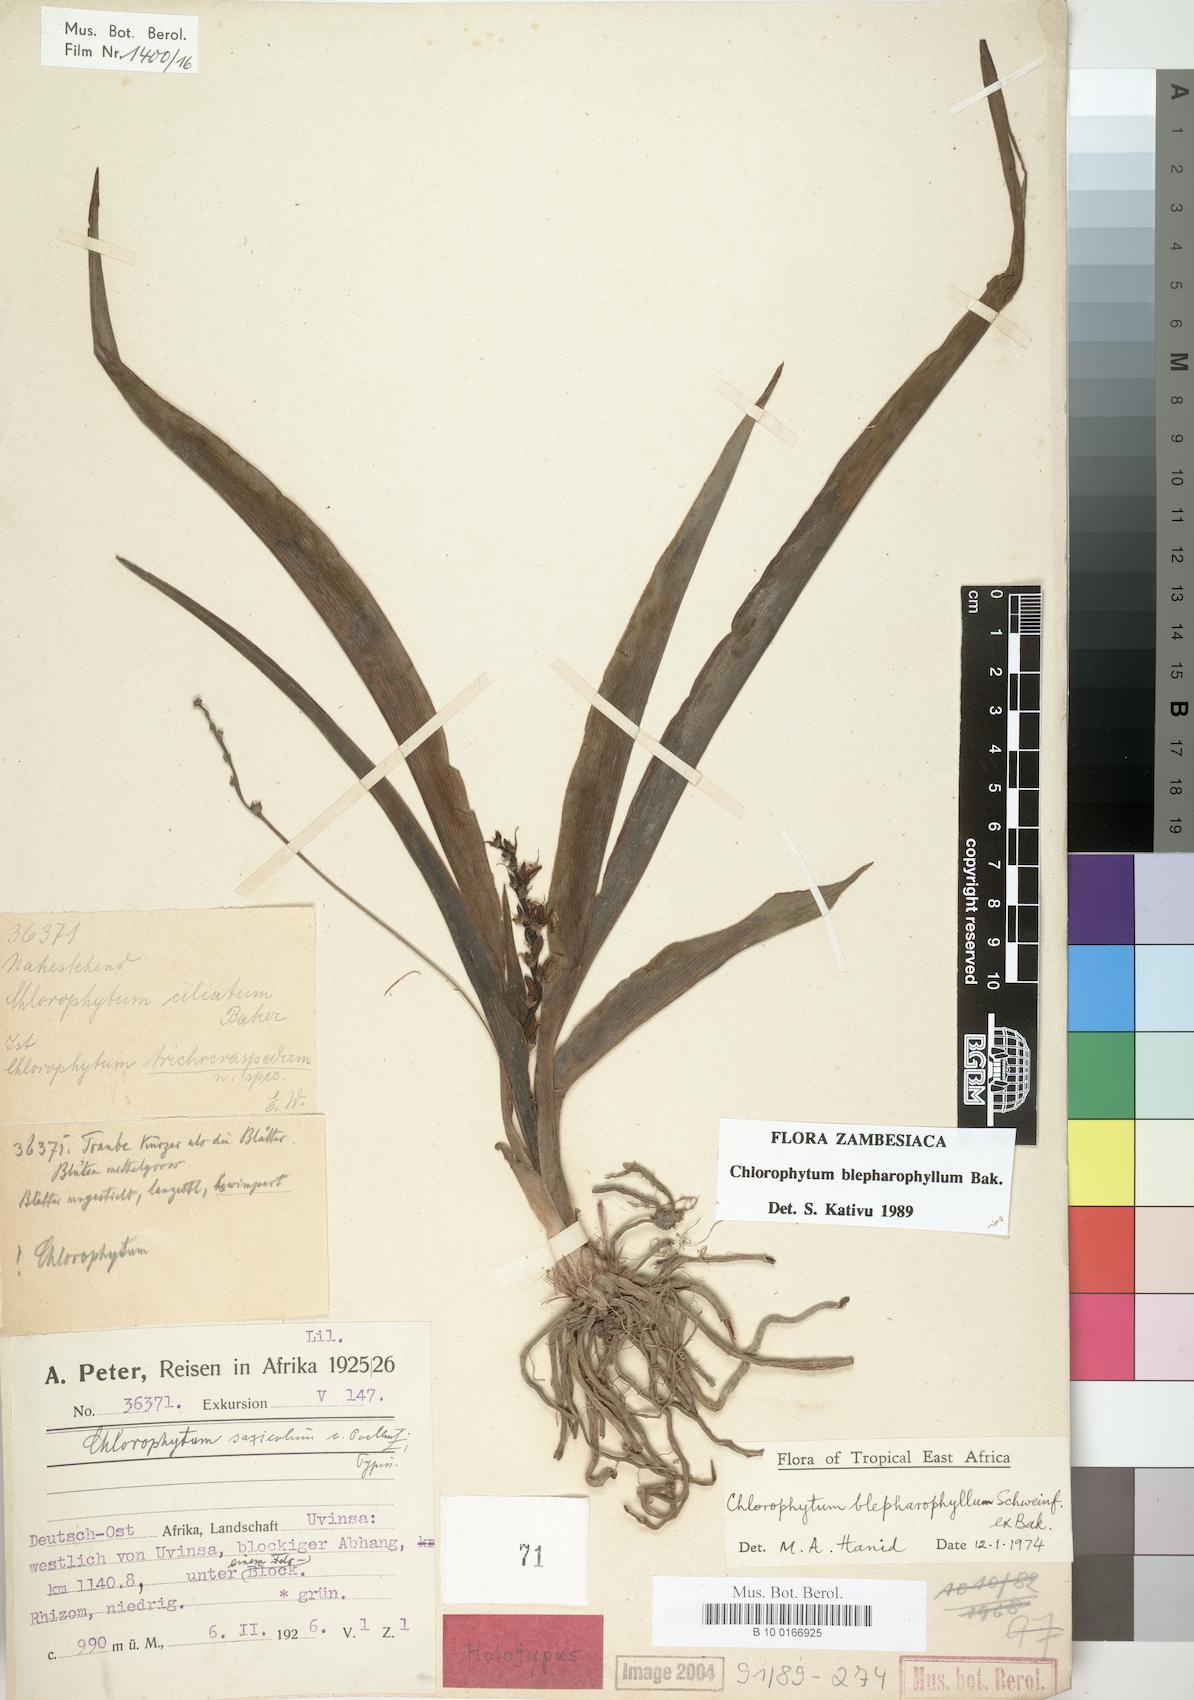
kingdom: Plantae
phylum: Tracheophyta
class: Liliopsida
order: Asparagales
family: Asparagaceae
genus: Chlorophytum
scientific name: Chlorophytum blepharophyllum
